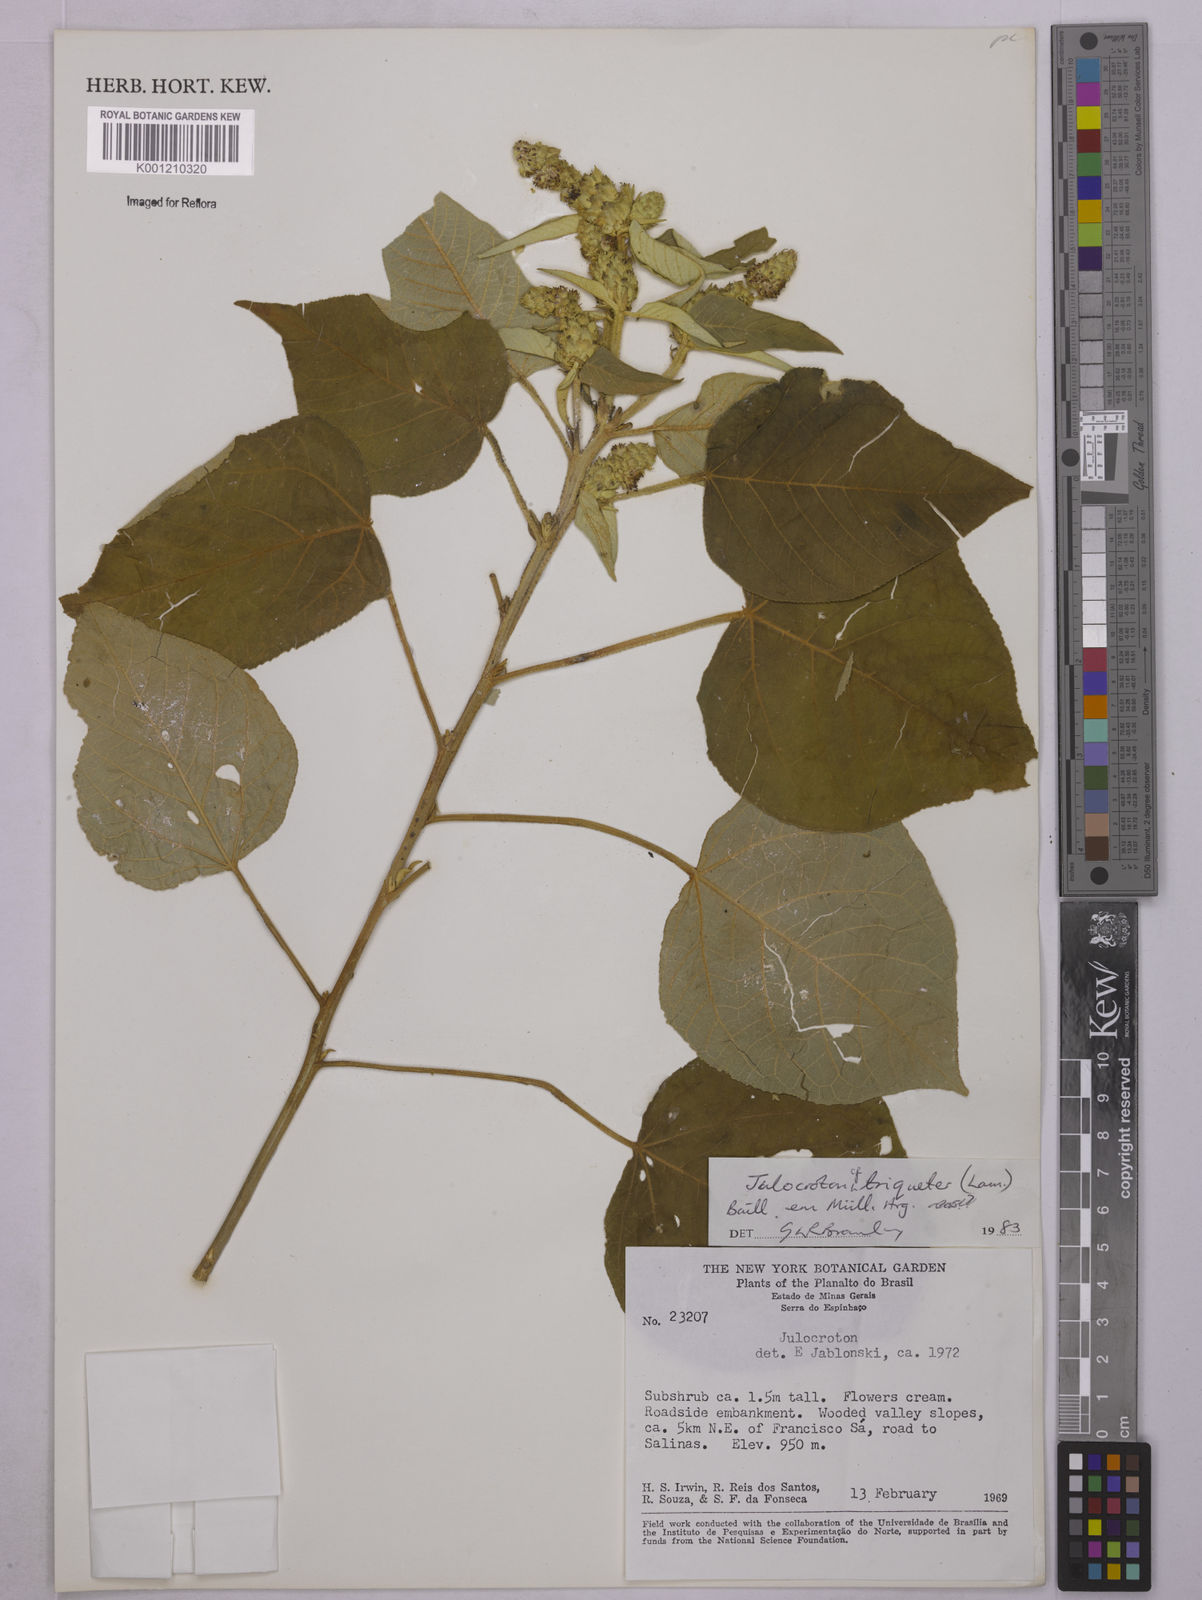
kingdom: Plantae
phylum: Tracheophyta
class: Magnoliopsida
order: Malpighiales
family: Euphorbiaceae
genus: Croton
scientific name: Croton triqueter
